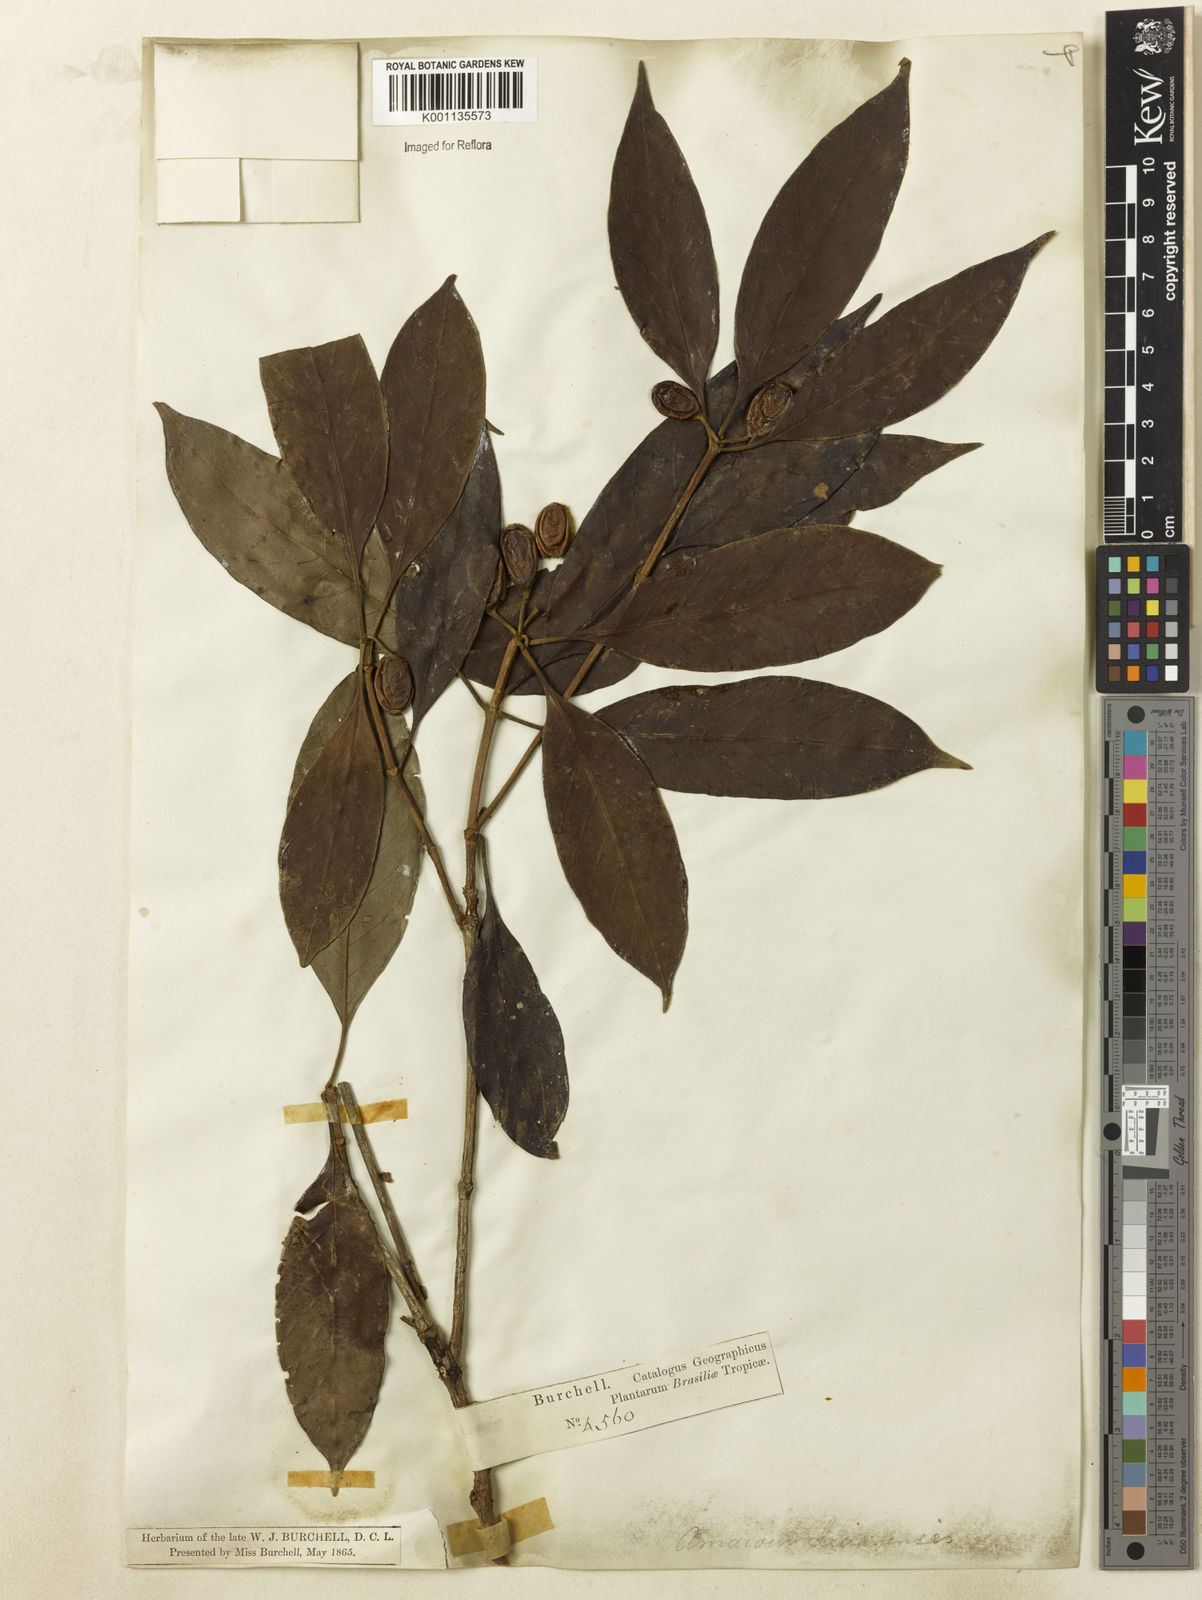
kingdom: Plantae
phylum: Tracheophyta
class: Magnoliopsida
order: Gentianales
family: Rubiaceae
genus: Amaioua
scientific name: Amaioua intermedia
